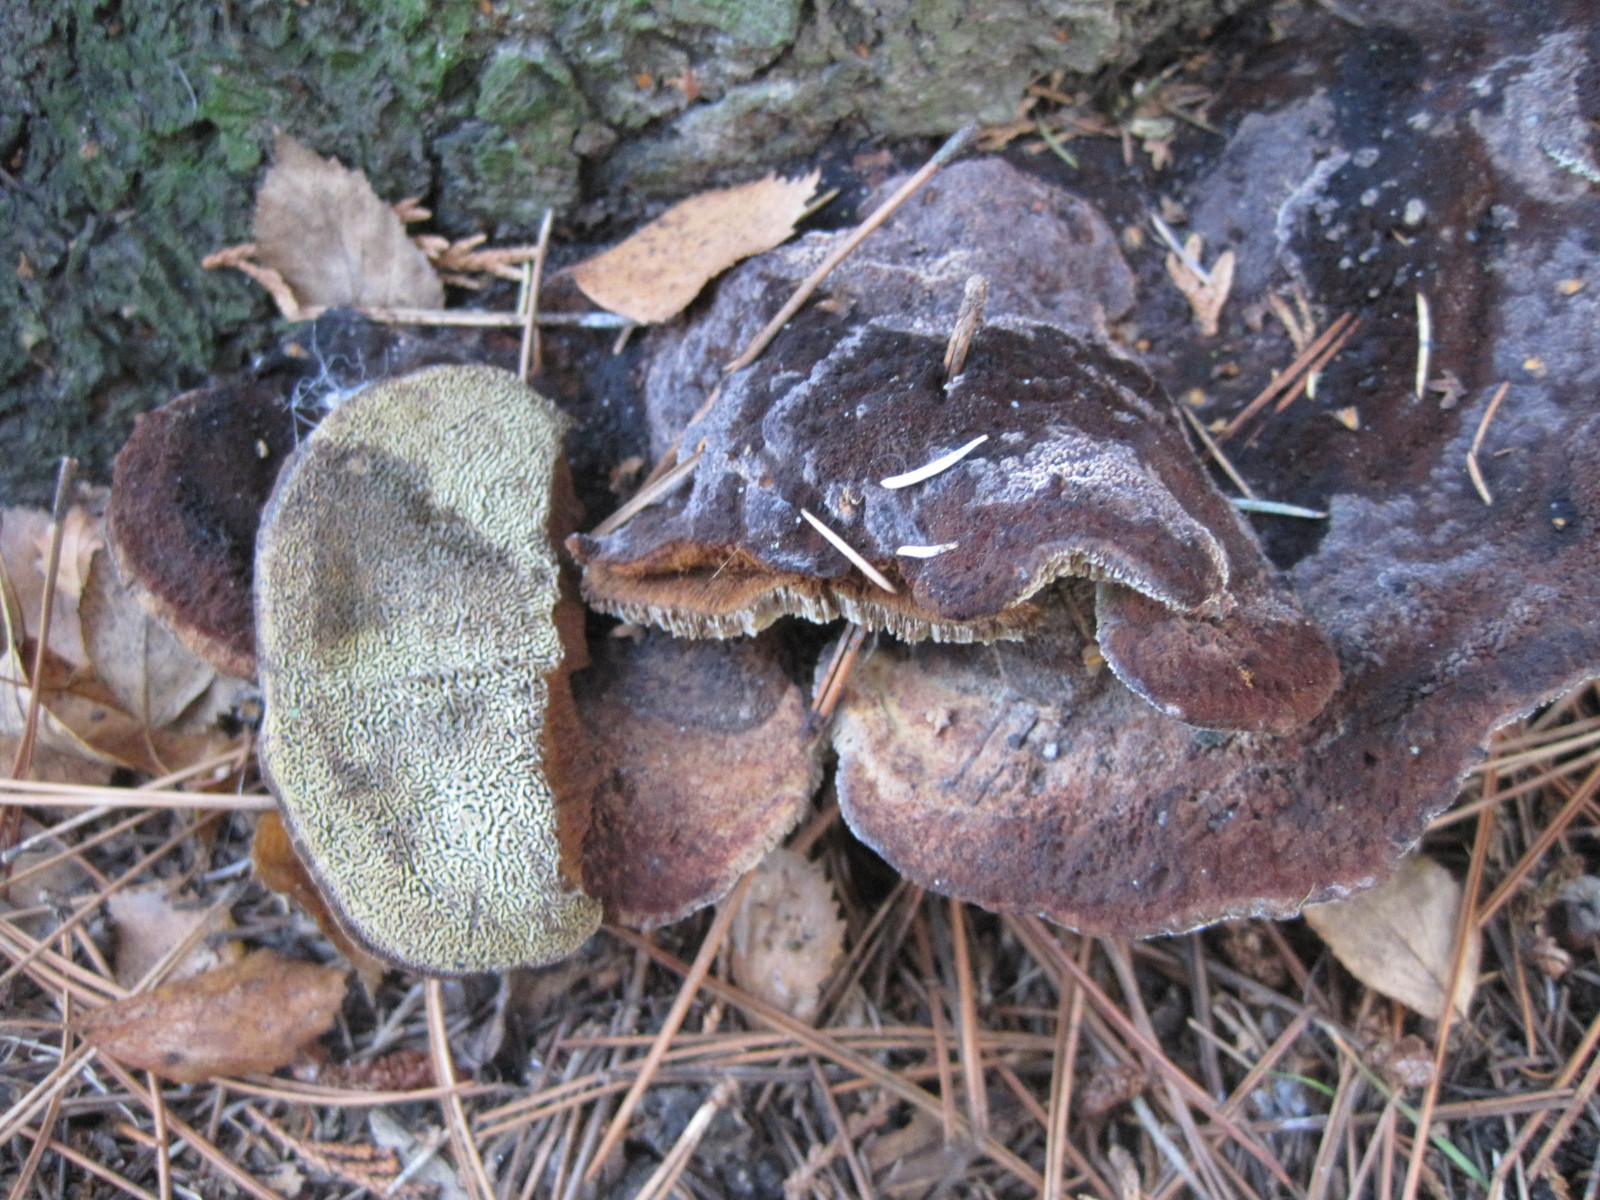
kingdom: Fungi
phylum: Basidiomycota
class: Agaricomycetes
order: Polyporales
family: Laetiporaceae
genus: Phaeolus
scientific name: Phaeolus schweinitzii
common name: brunporesvamp
